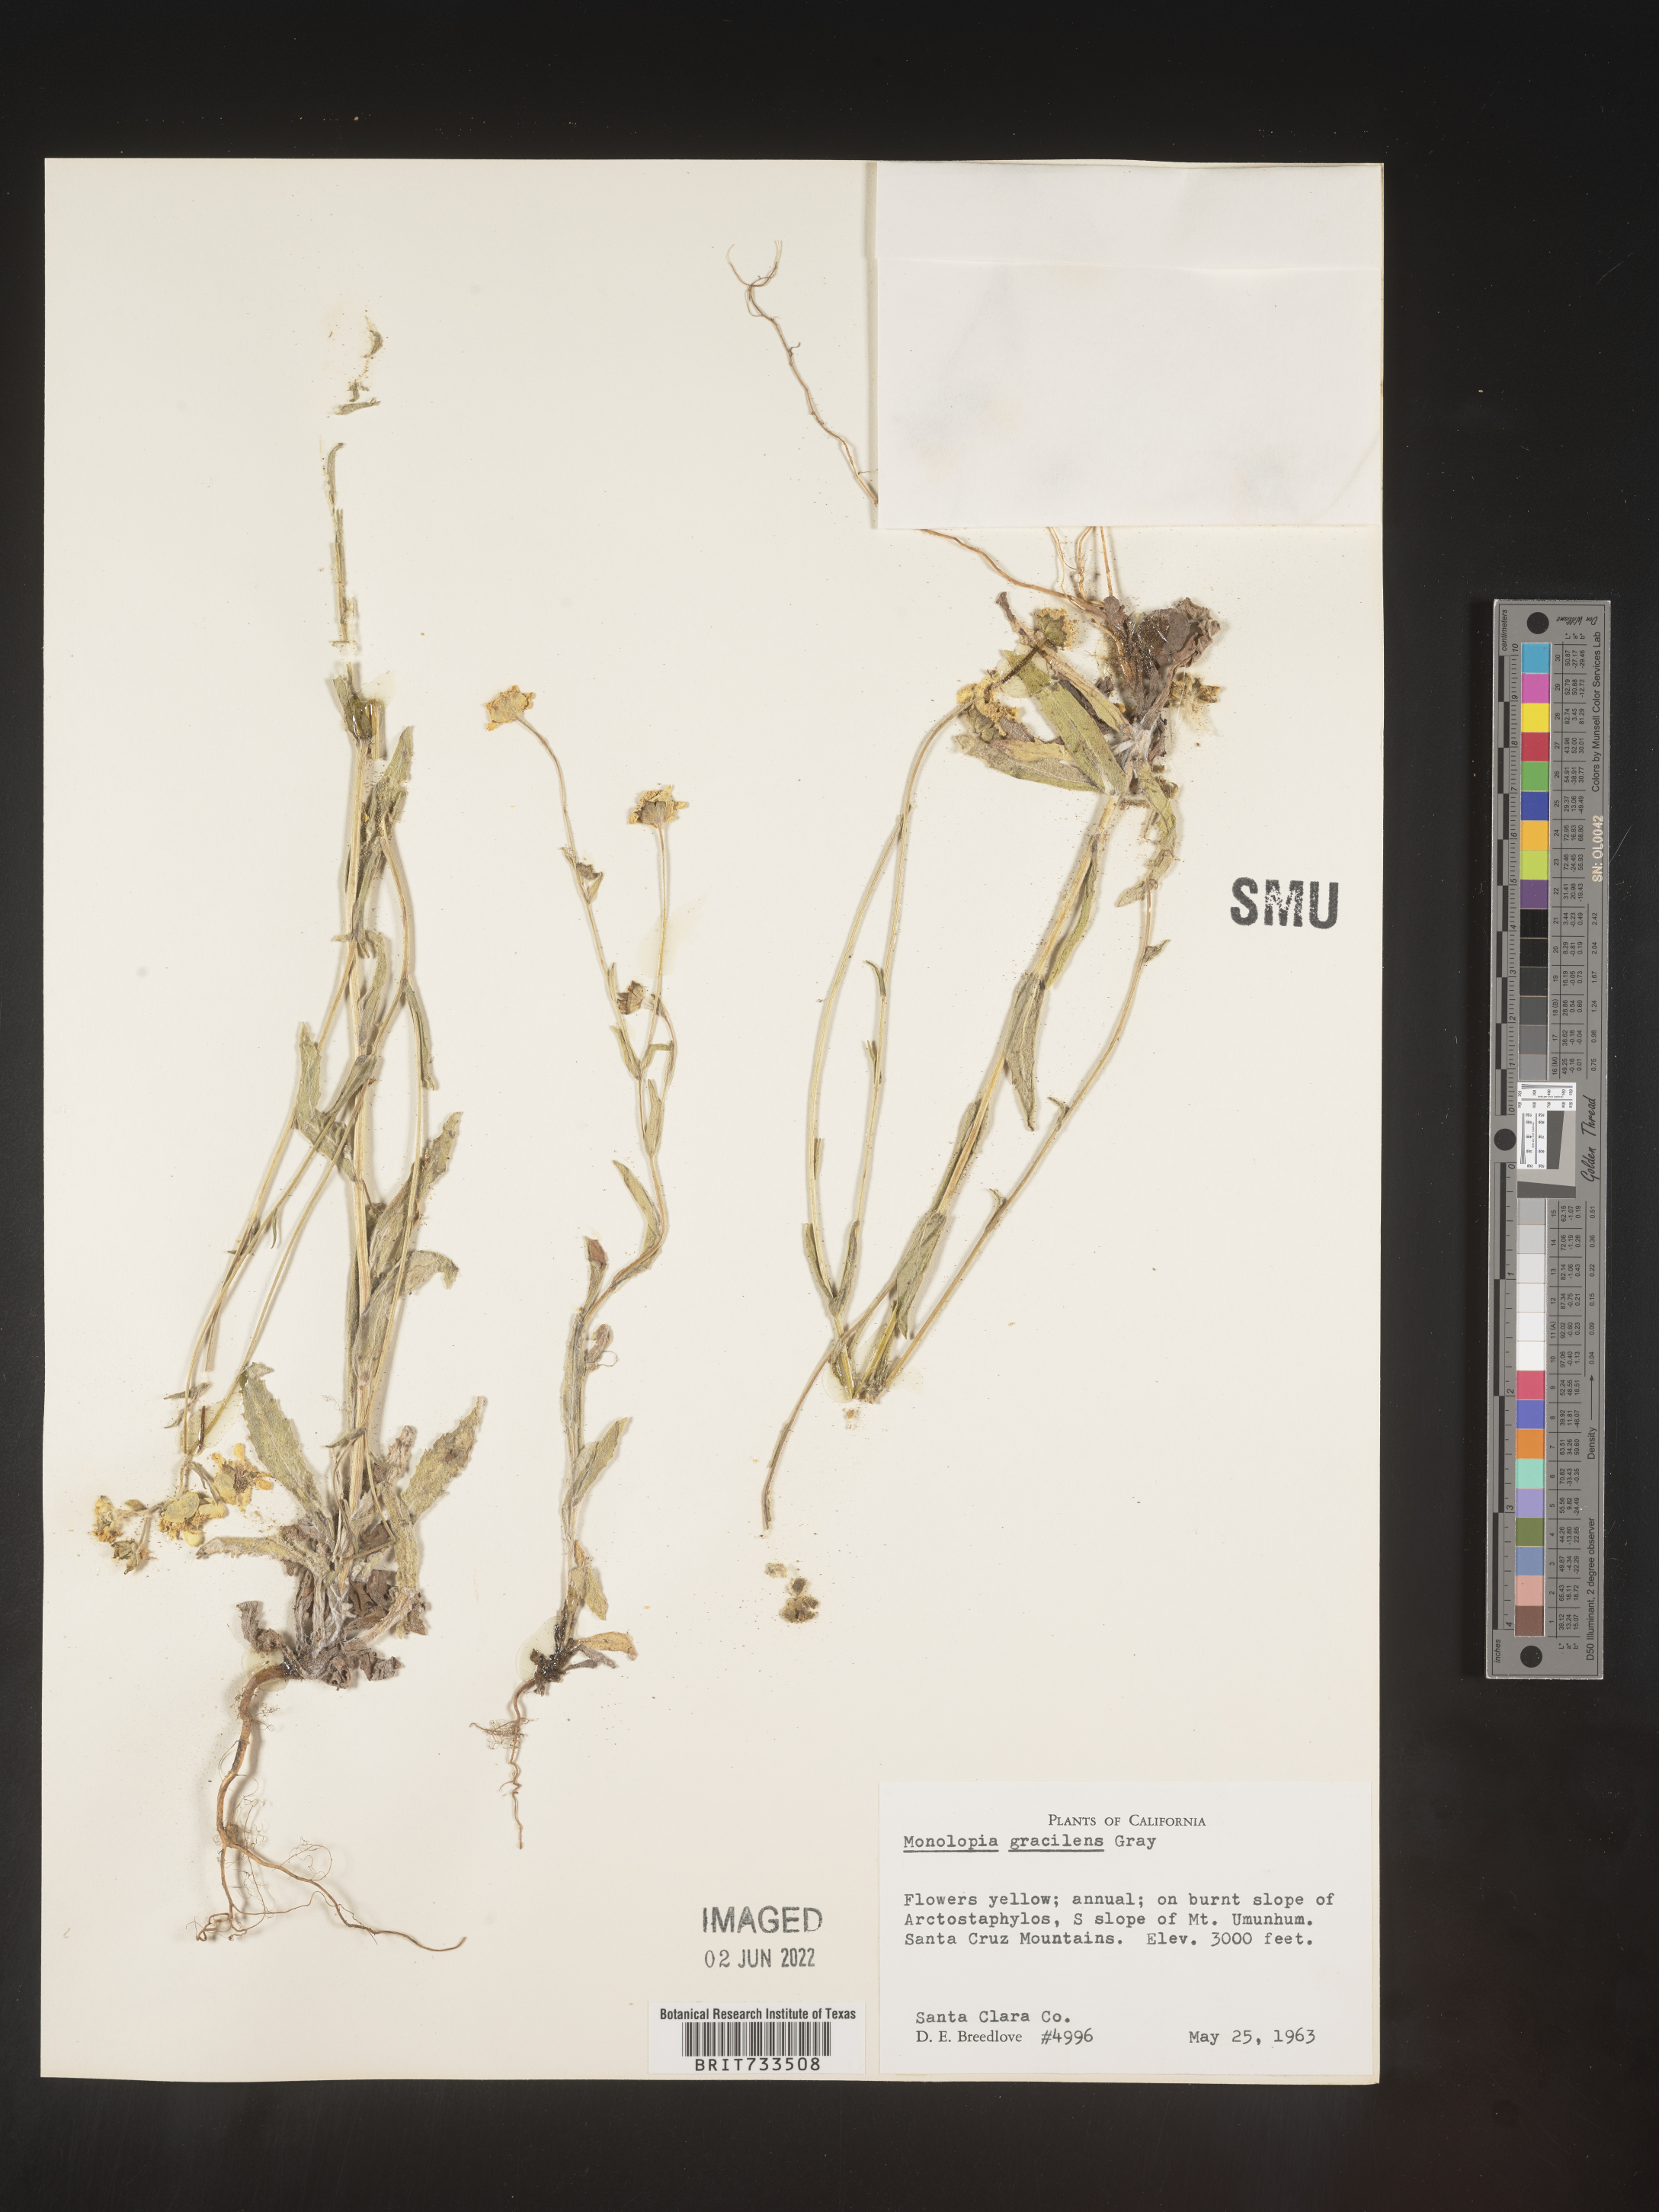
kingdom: Plantae
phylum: Tracheophyta
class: Magnoliopsida
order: Asterales
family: Asteraceae
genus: Monolopia
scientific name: Monolopia gracilens
